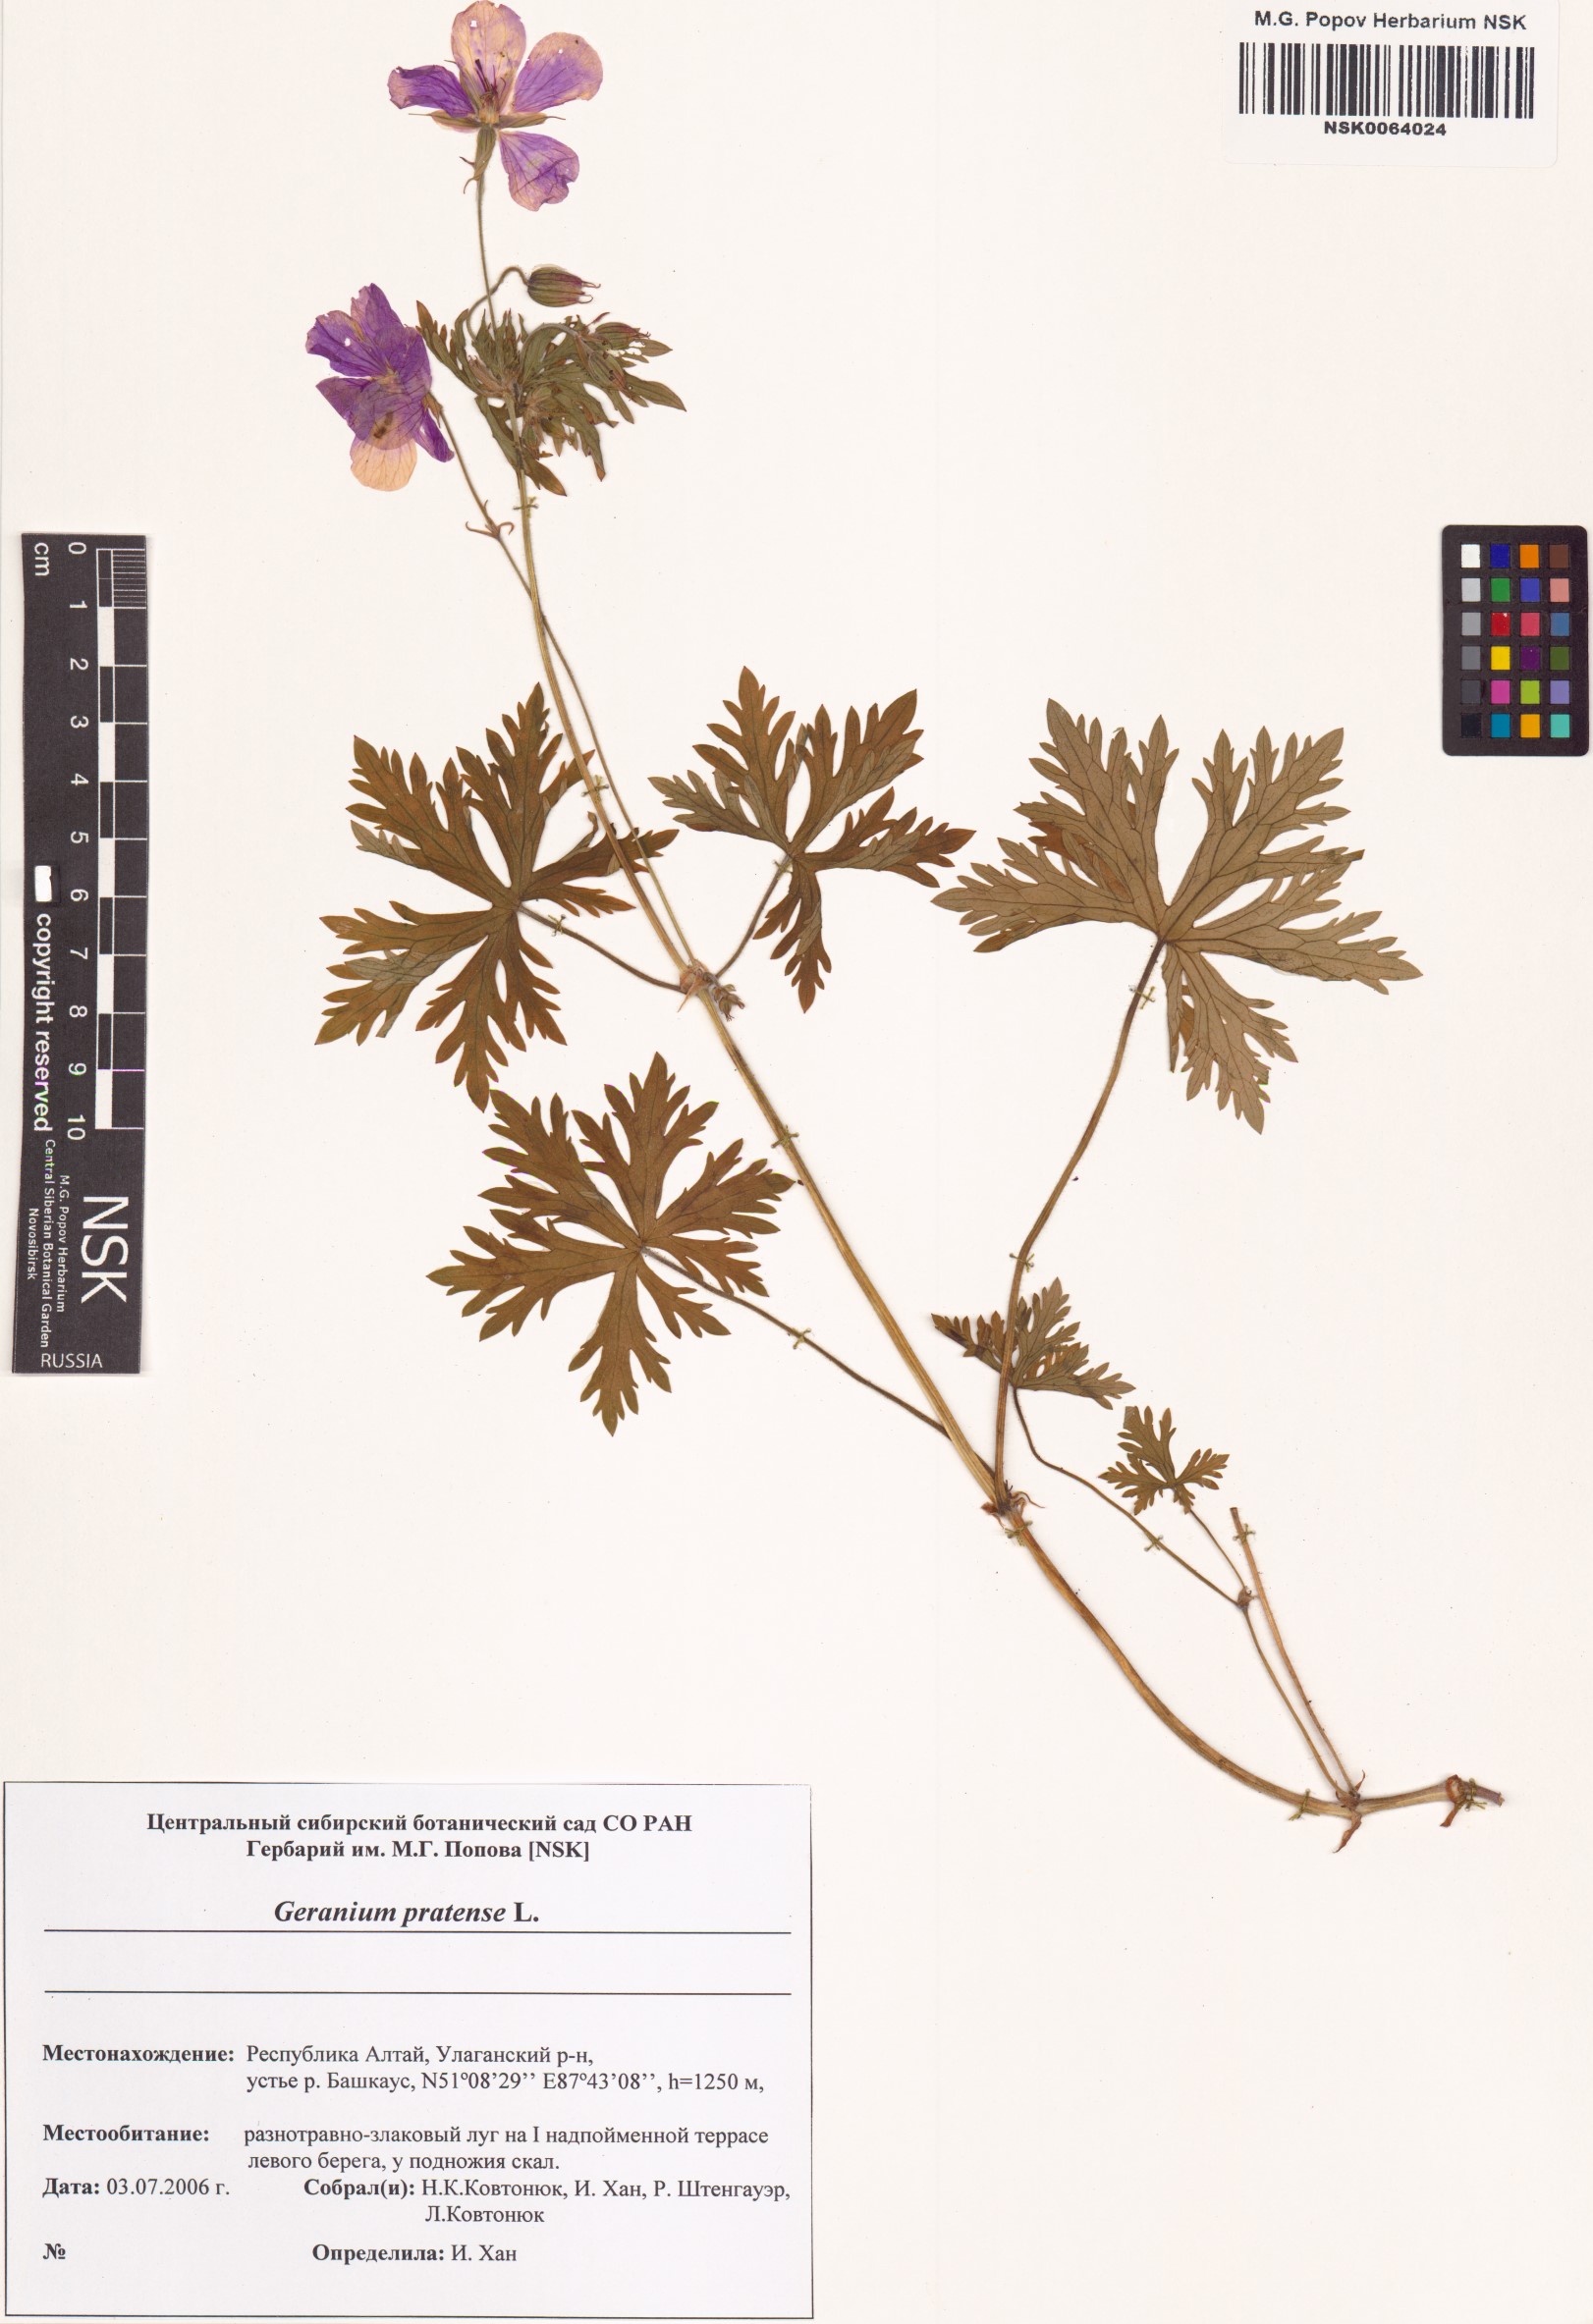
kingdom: Plantae
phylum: Tracheophyta
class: Magnoliopsida
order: Geraniales
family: Geraniaceae
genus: Geranium
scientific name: Geranium pratense
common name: Meadow crane's-bill
